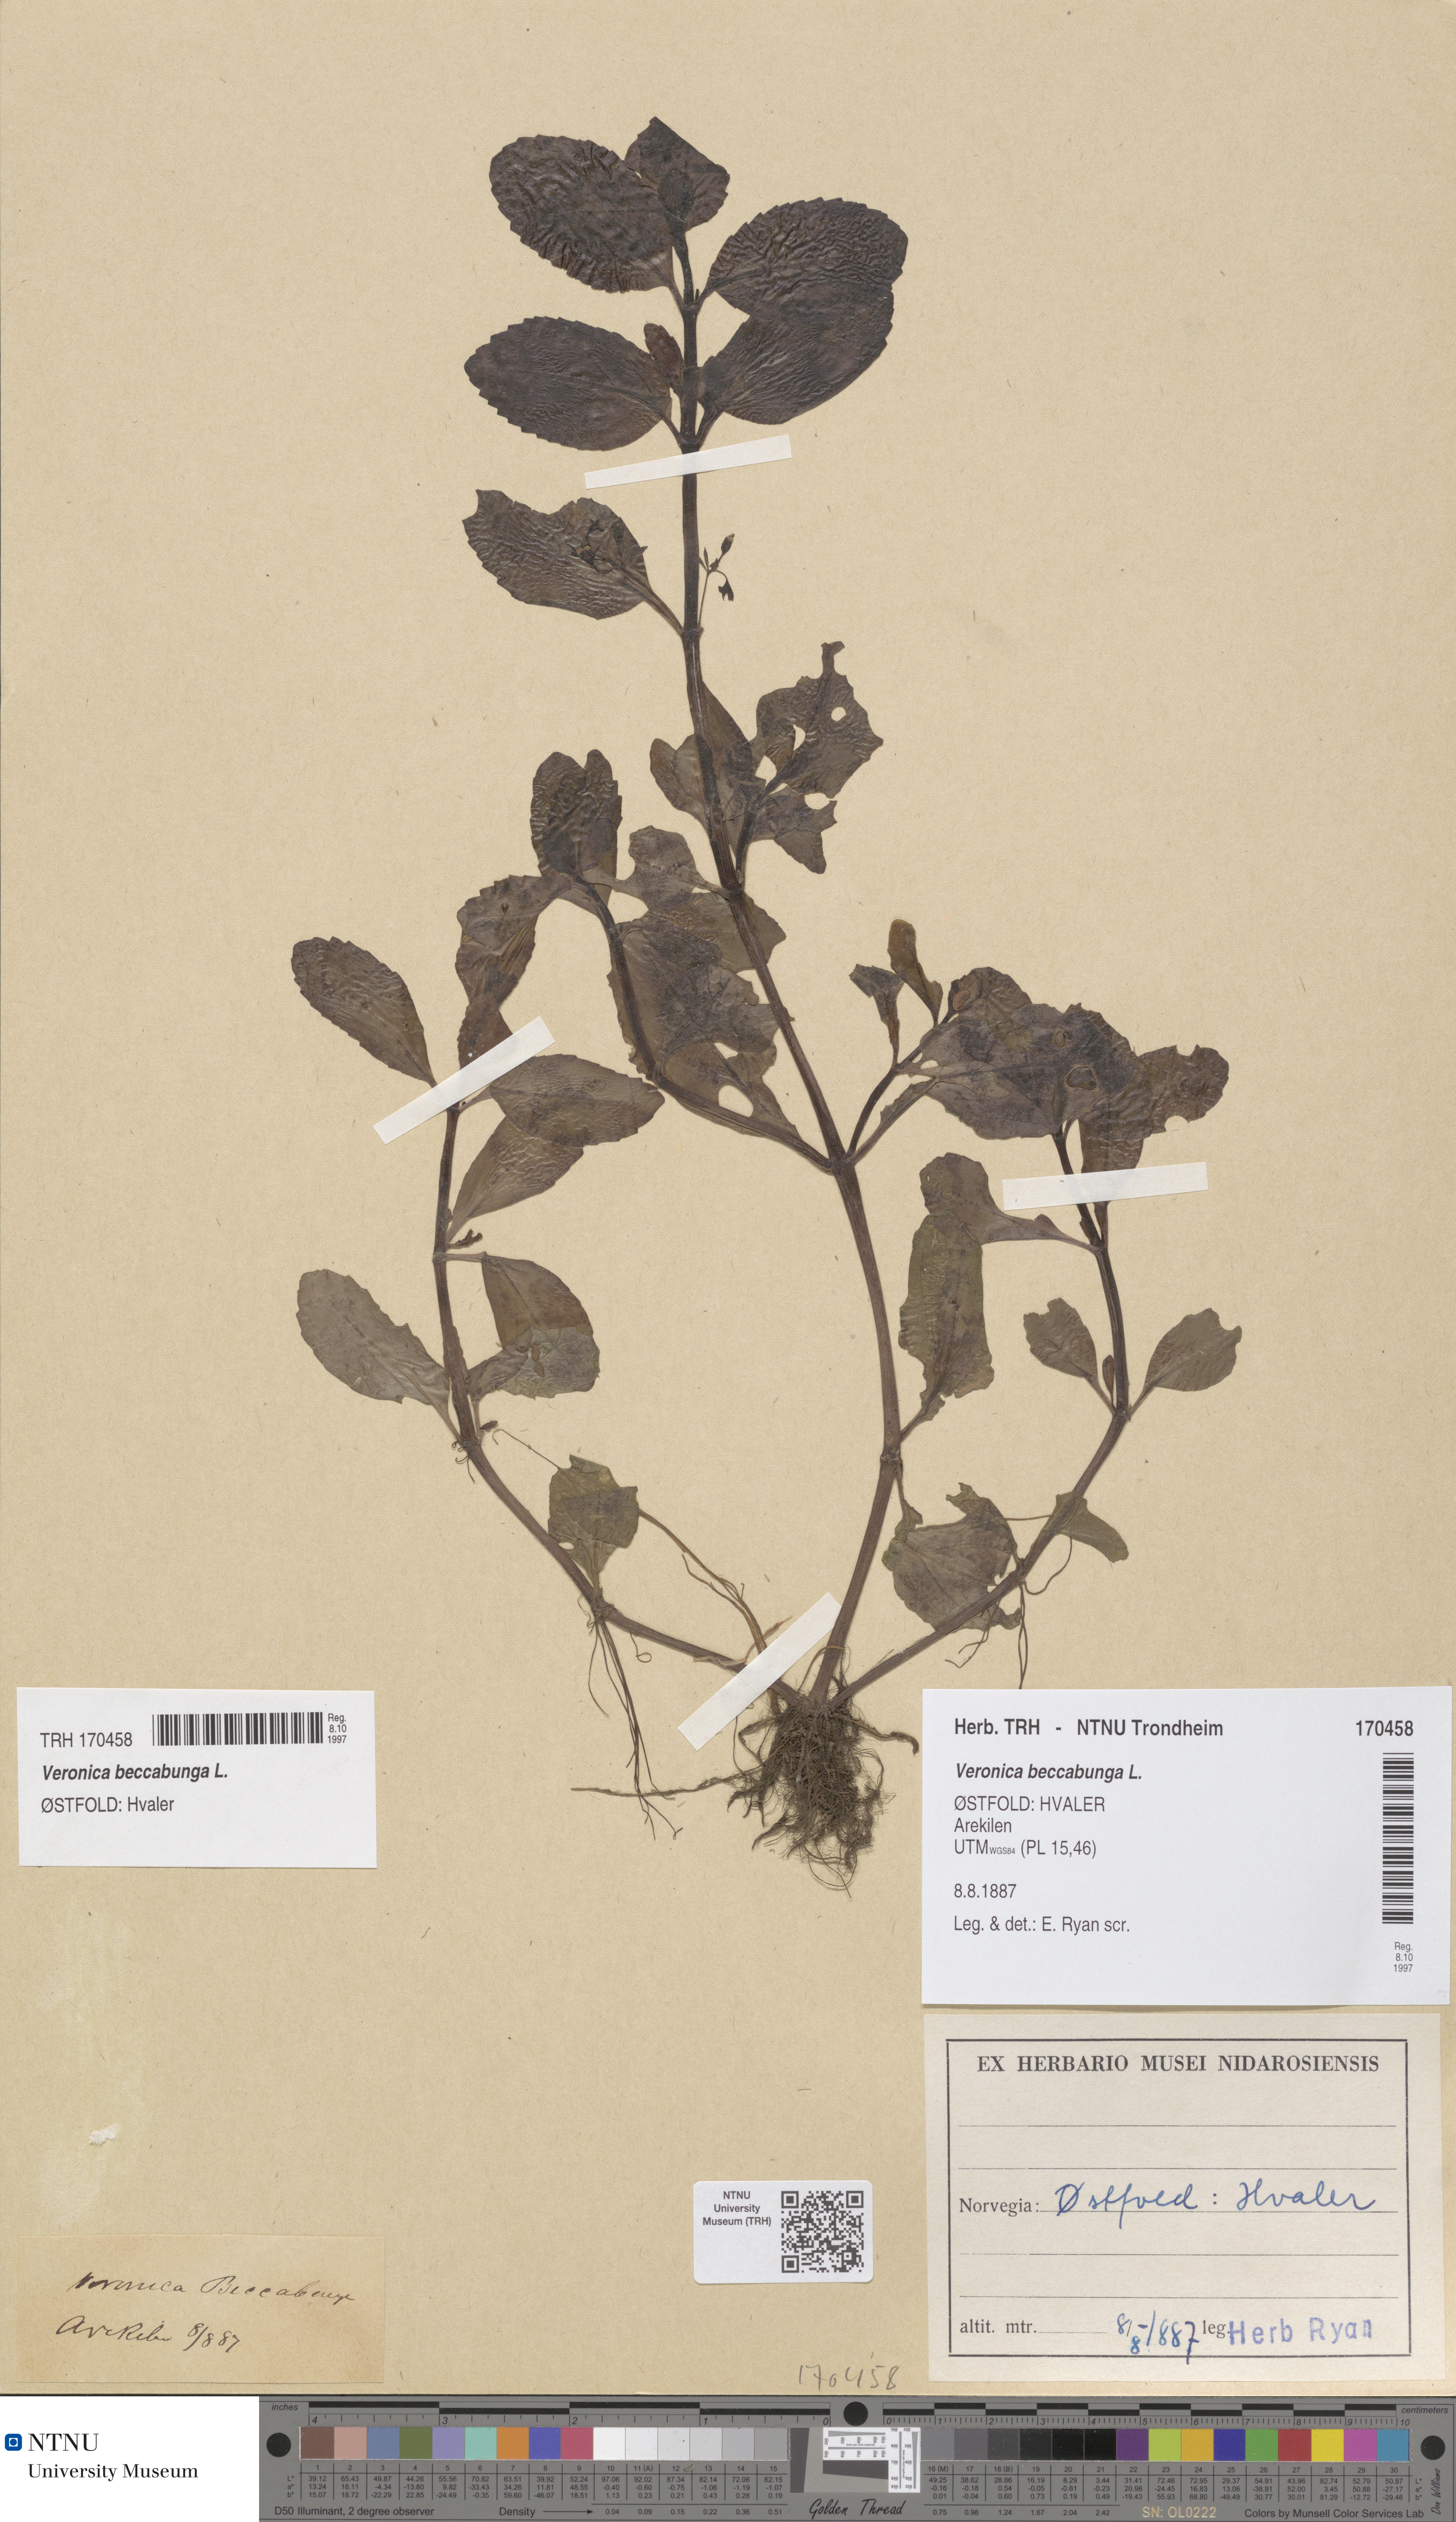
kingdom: Plantae
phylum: Tracheophyta
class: Magnoliopsida
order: Lamiales
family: Plantaginaceae
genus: Veronica
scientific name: Veronica beccabunga
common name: Brooklime
